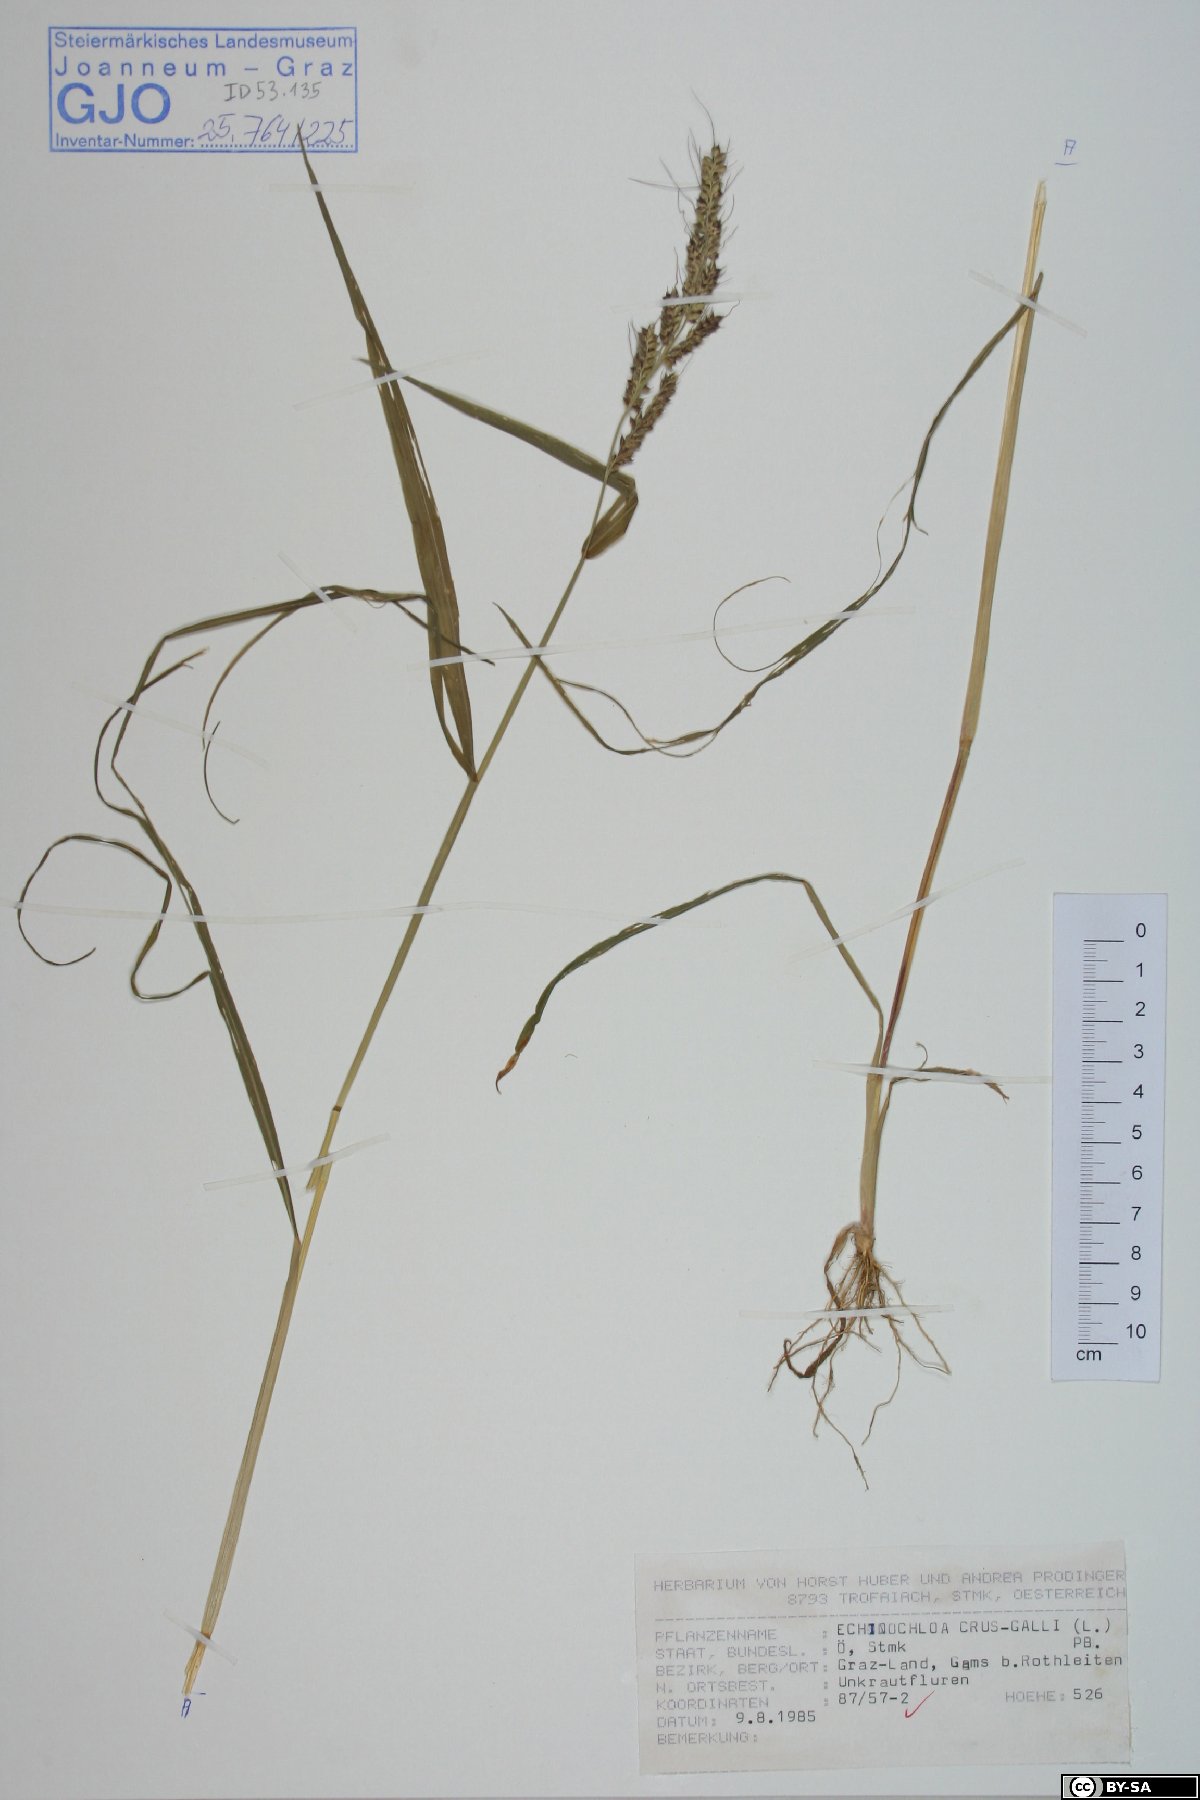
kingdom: Plantae
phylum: Tracheophyta
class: Liliopsida
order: Poales
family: Poaceae
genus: Echinochloa
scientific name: Echinochloa crus-galli
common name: Cockspur
